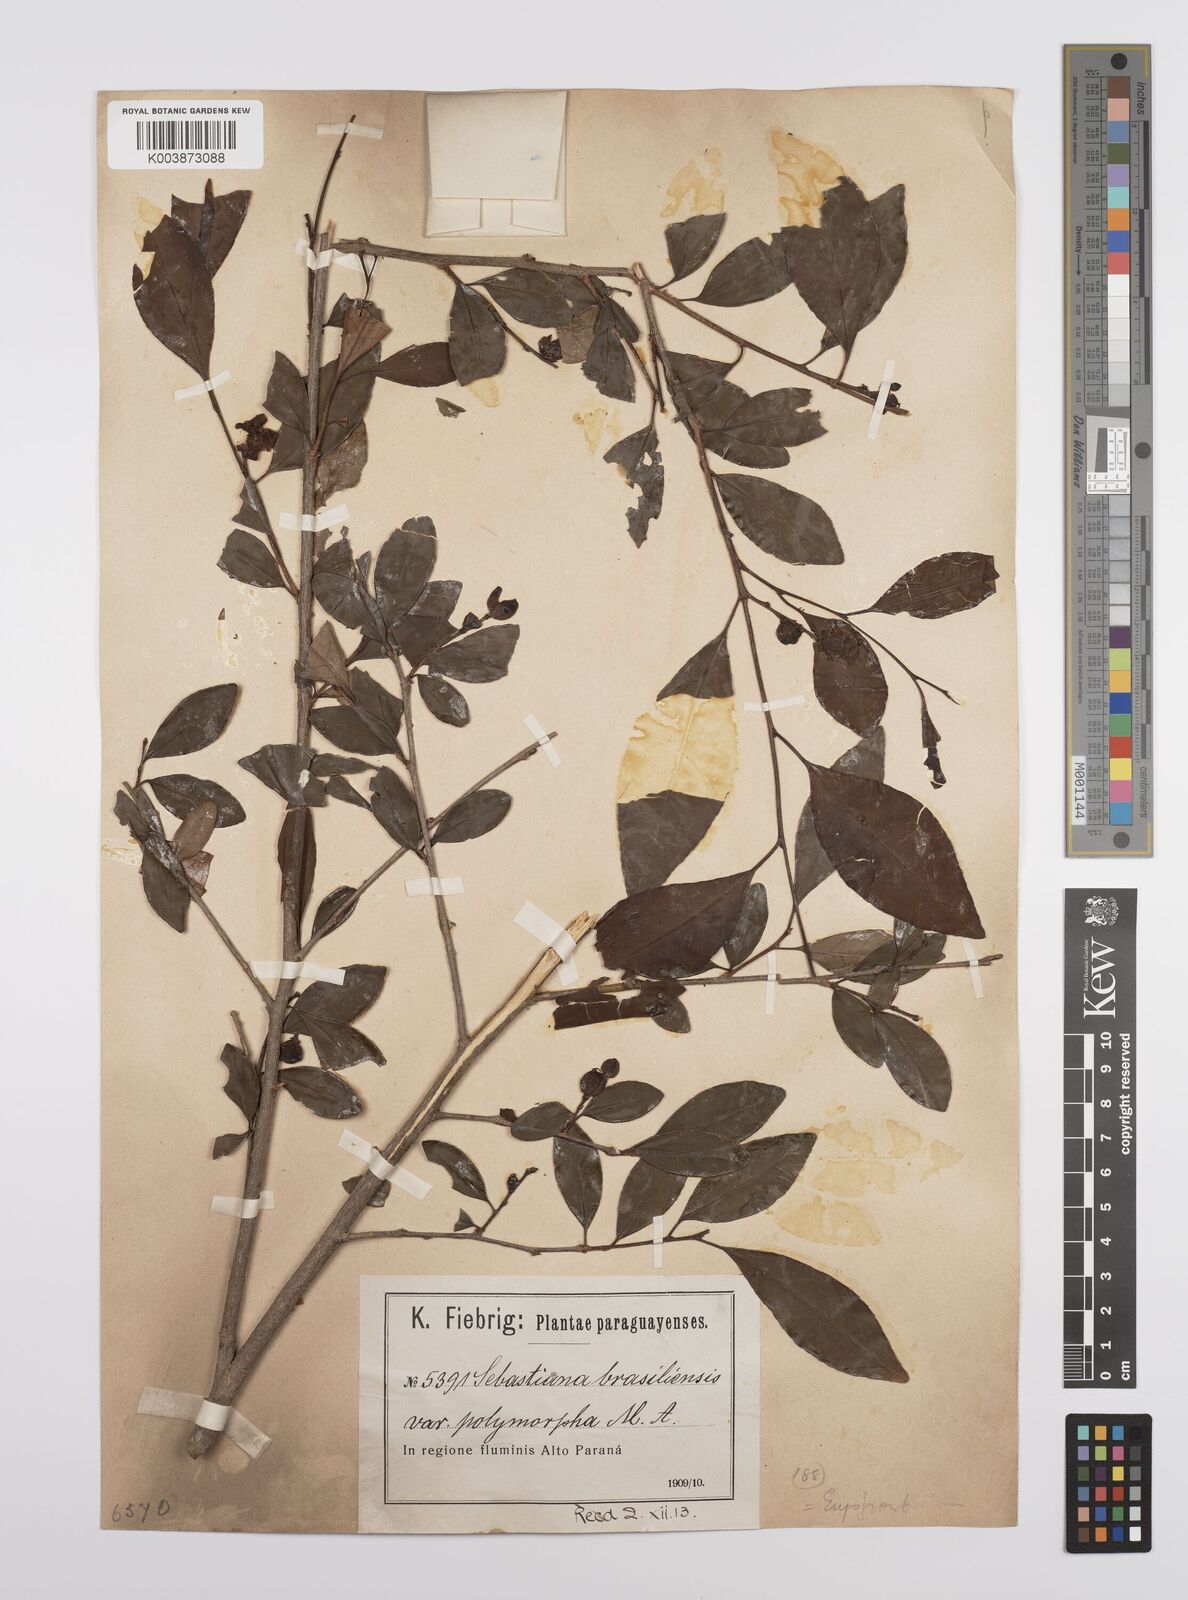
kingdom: Plantae
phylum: Tracheophyta
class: Magnoliopsida
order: Malpighiales
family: Euphorbiaceae
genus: Sebastiania
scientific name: Sebastiania ramosissima
